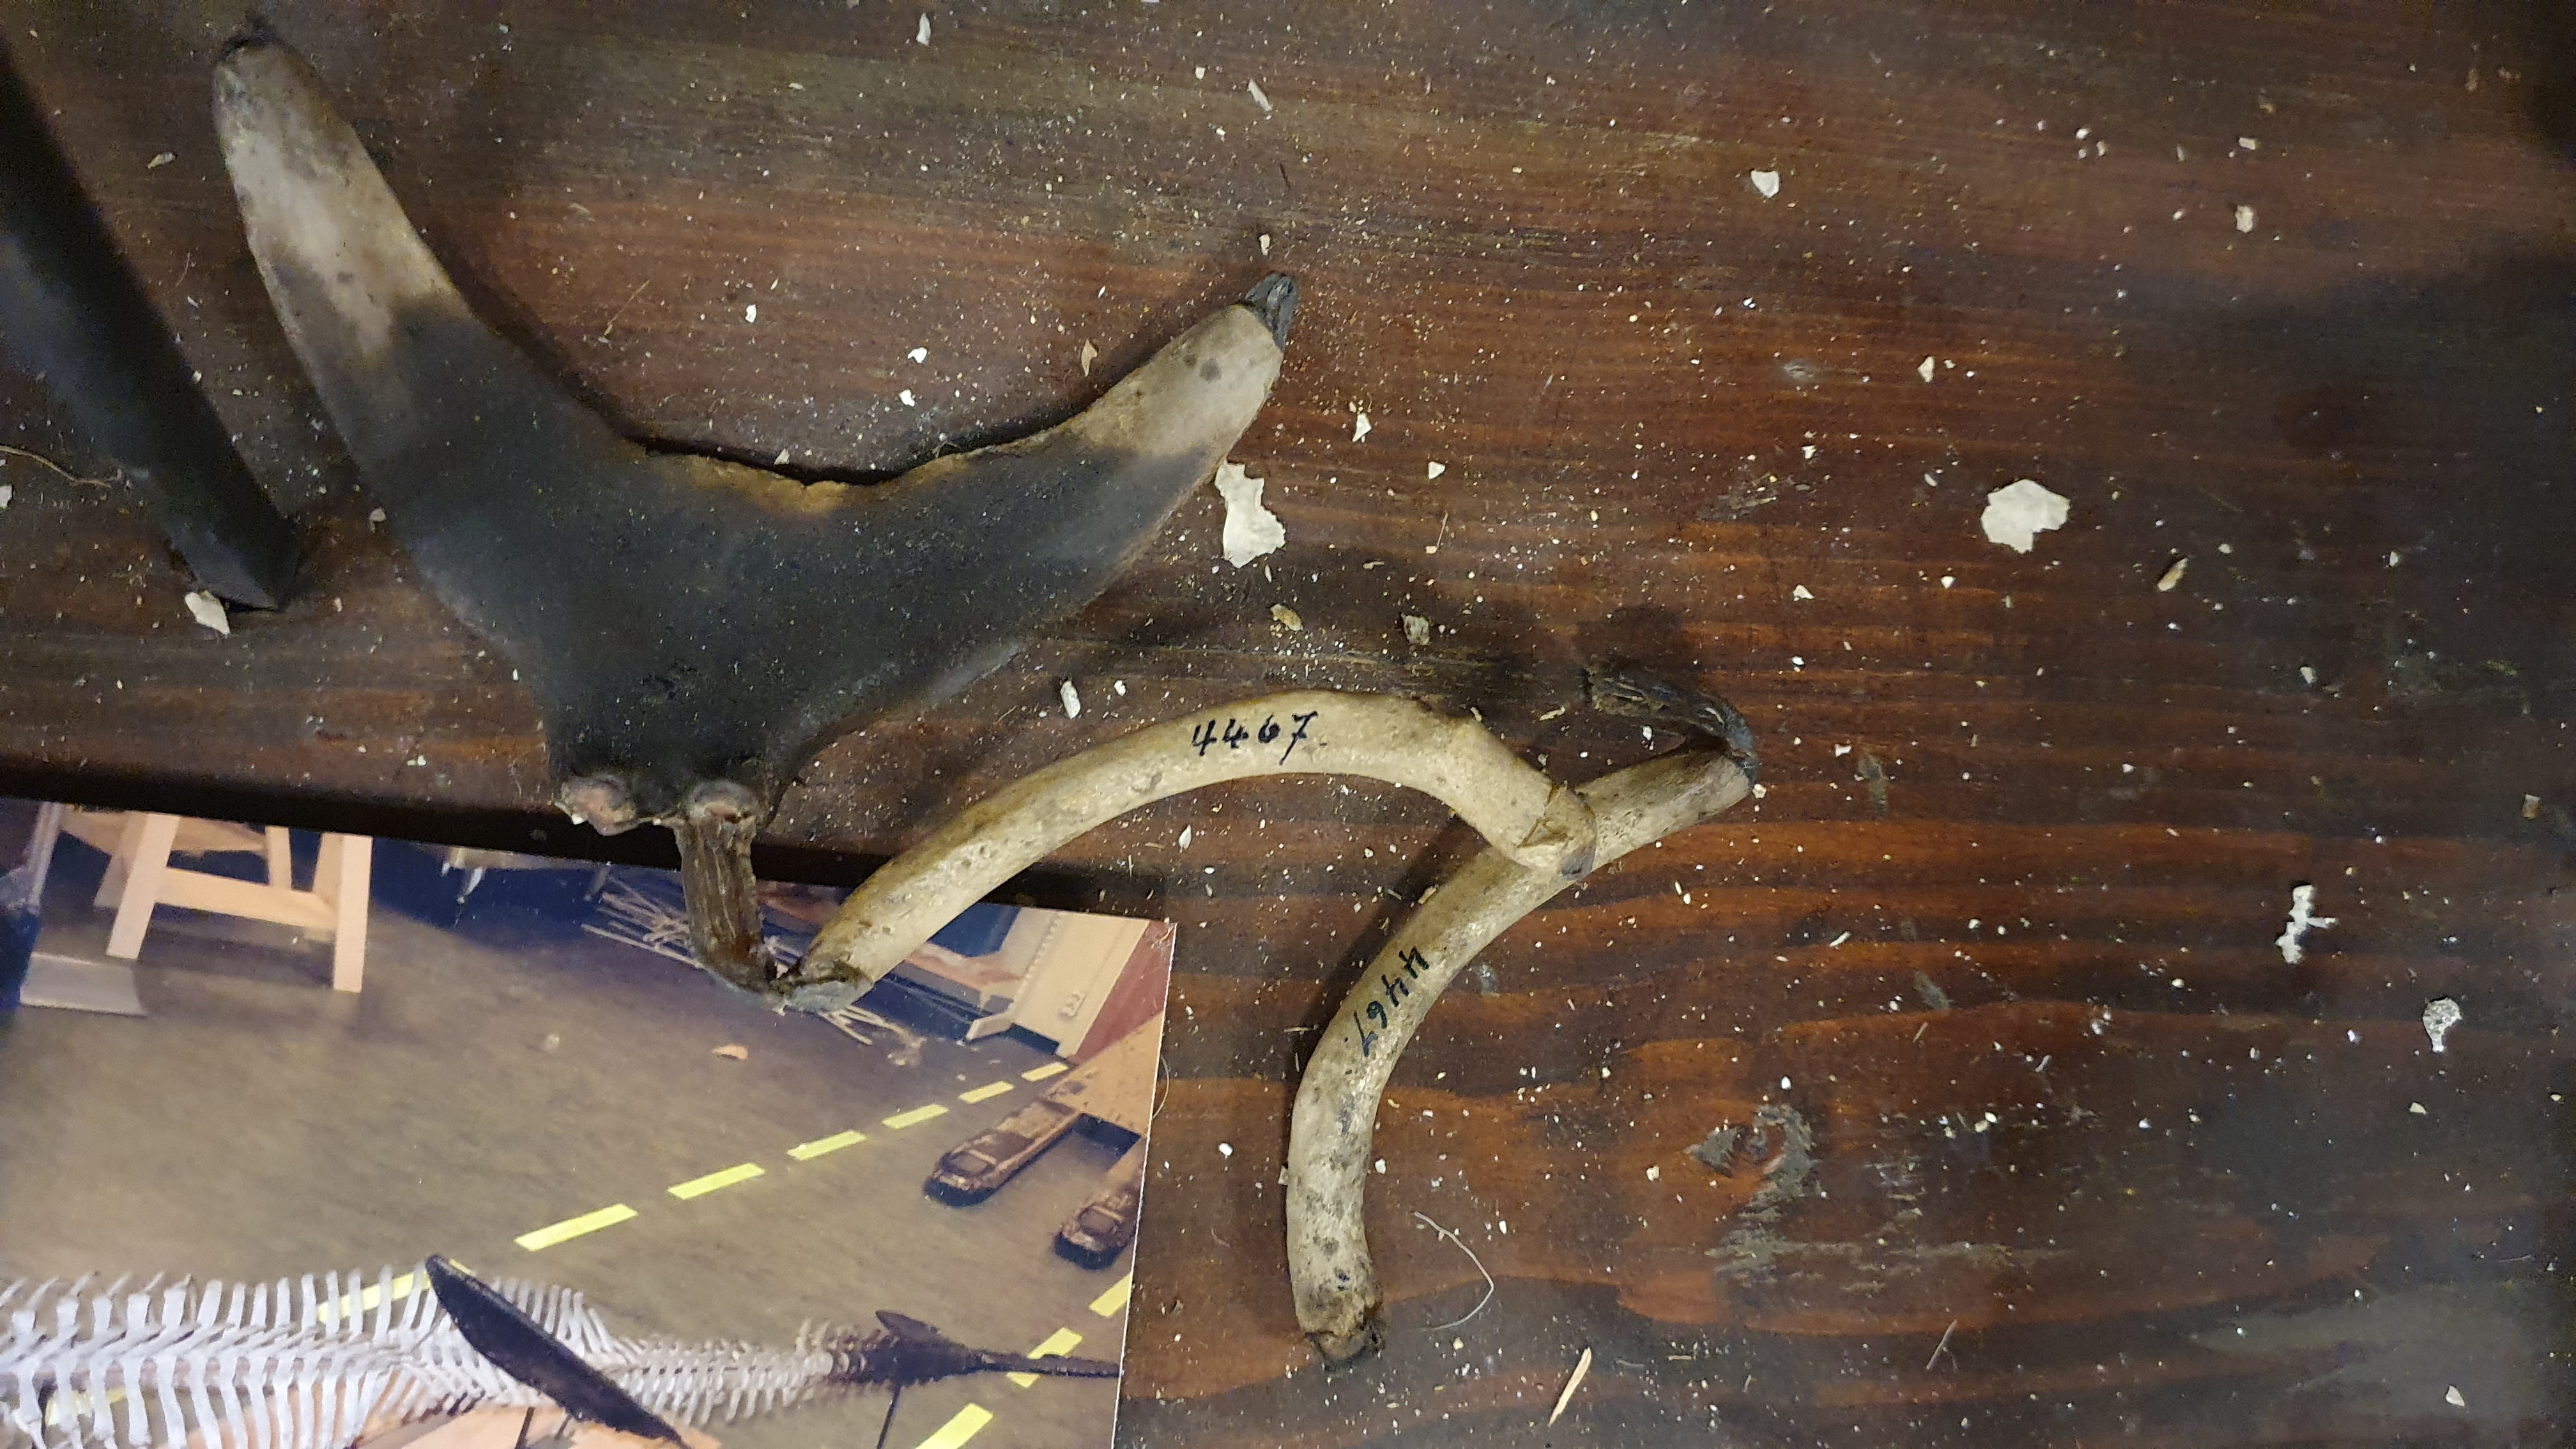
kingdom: Animalia
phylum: Chordata
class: Mammalia
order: Cetacea
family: Phocoenidae
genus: Phocoena
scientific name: Phocoena phocoena
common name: Harbor porpoise
